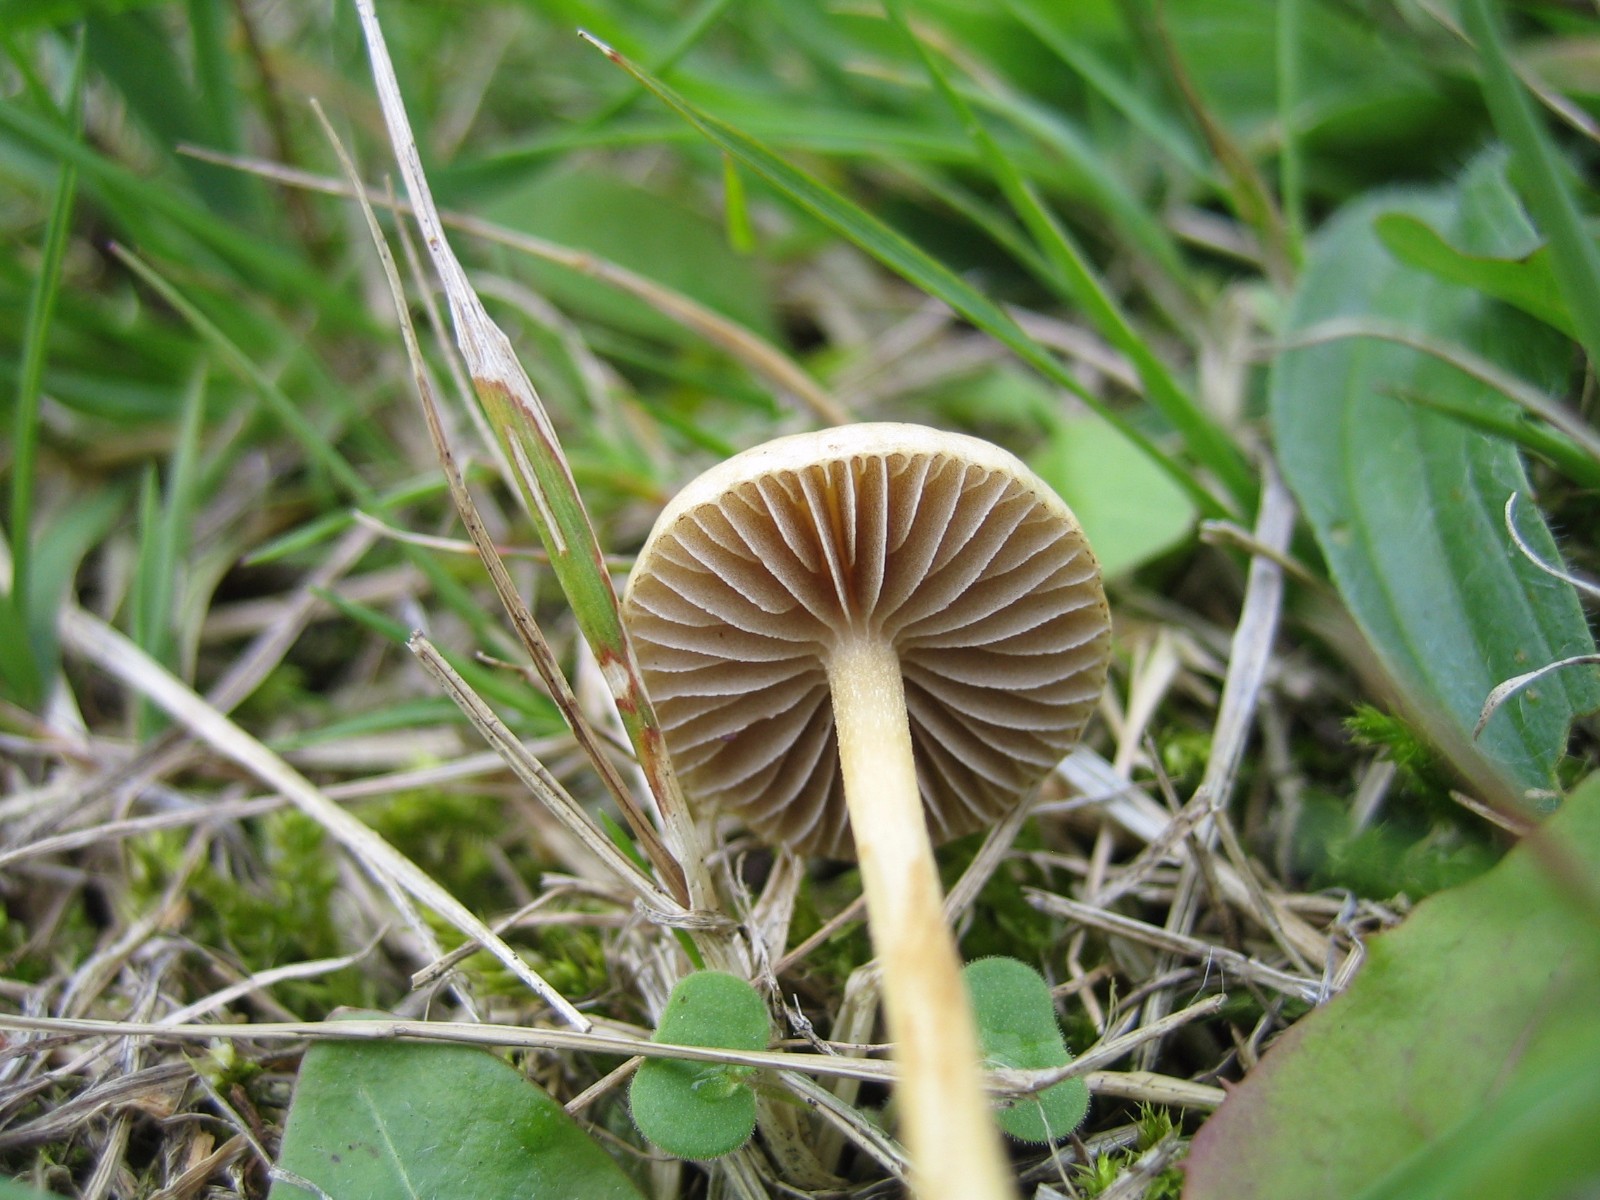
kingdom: Fungi
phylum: Basidiomycota
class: Agaricomycetes
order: Agaricales
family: Strophariaceae
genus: Agrocybe
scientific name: Agrocybe pediades
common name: almindelig agerhat
